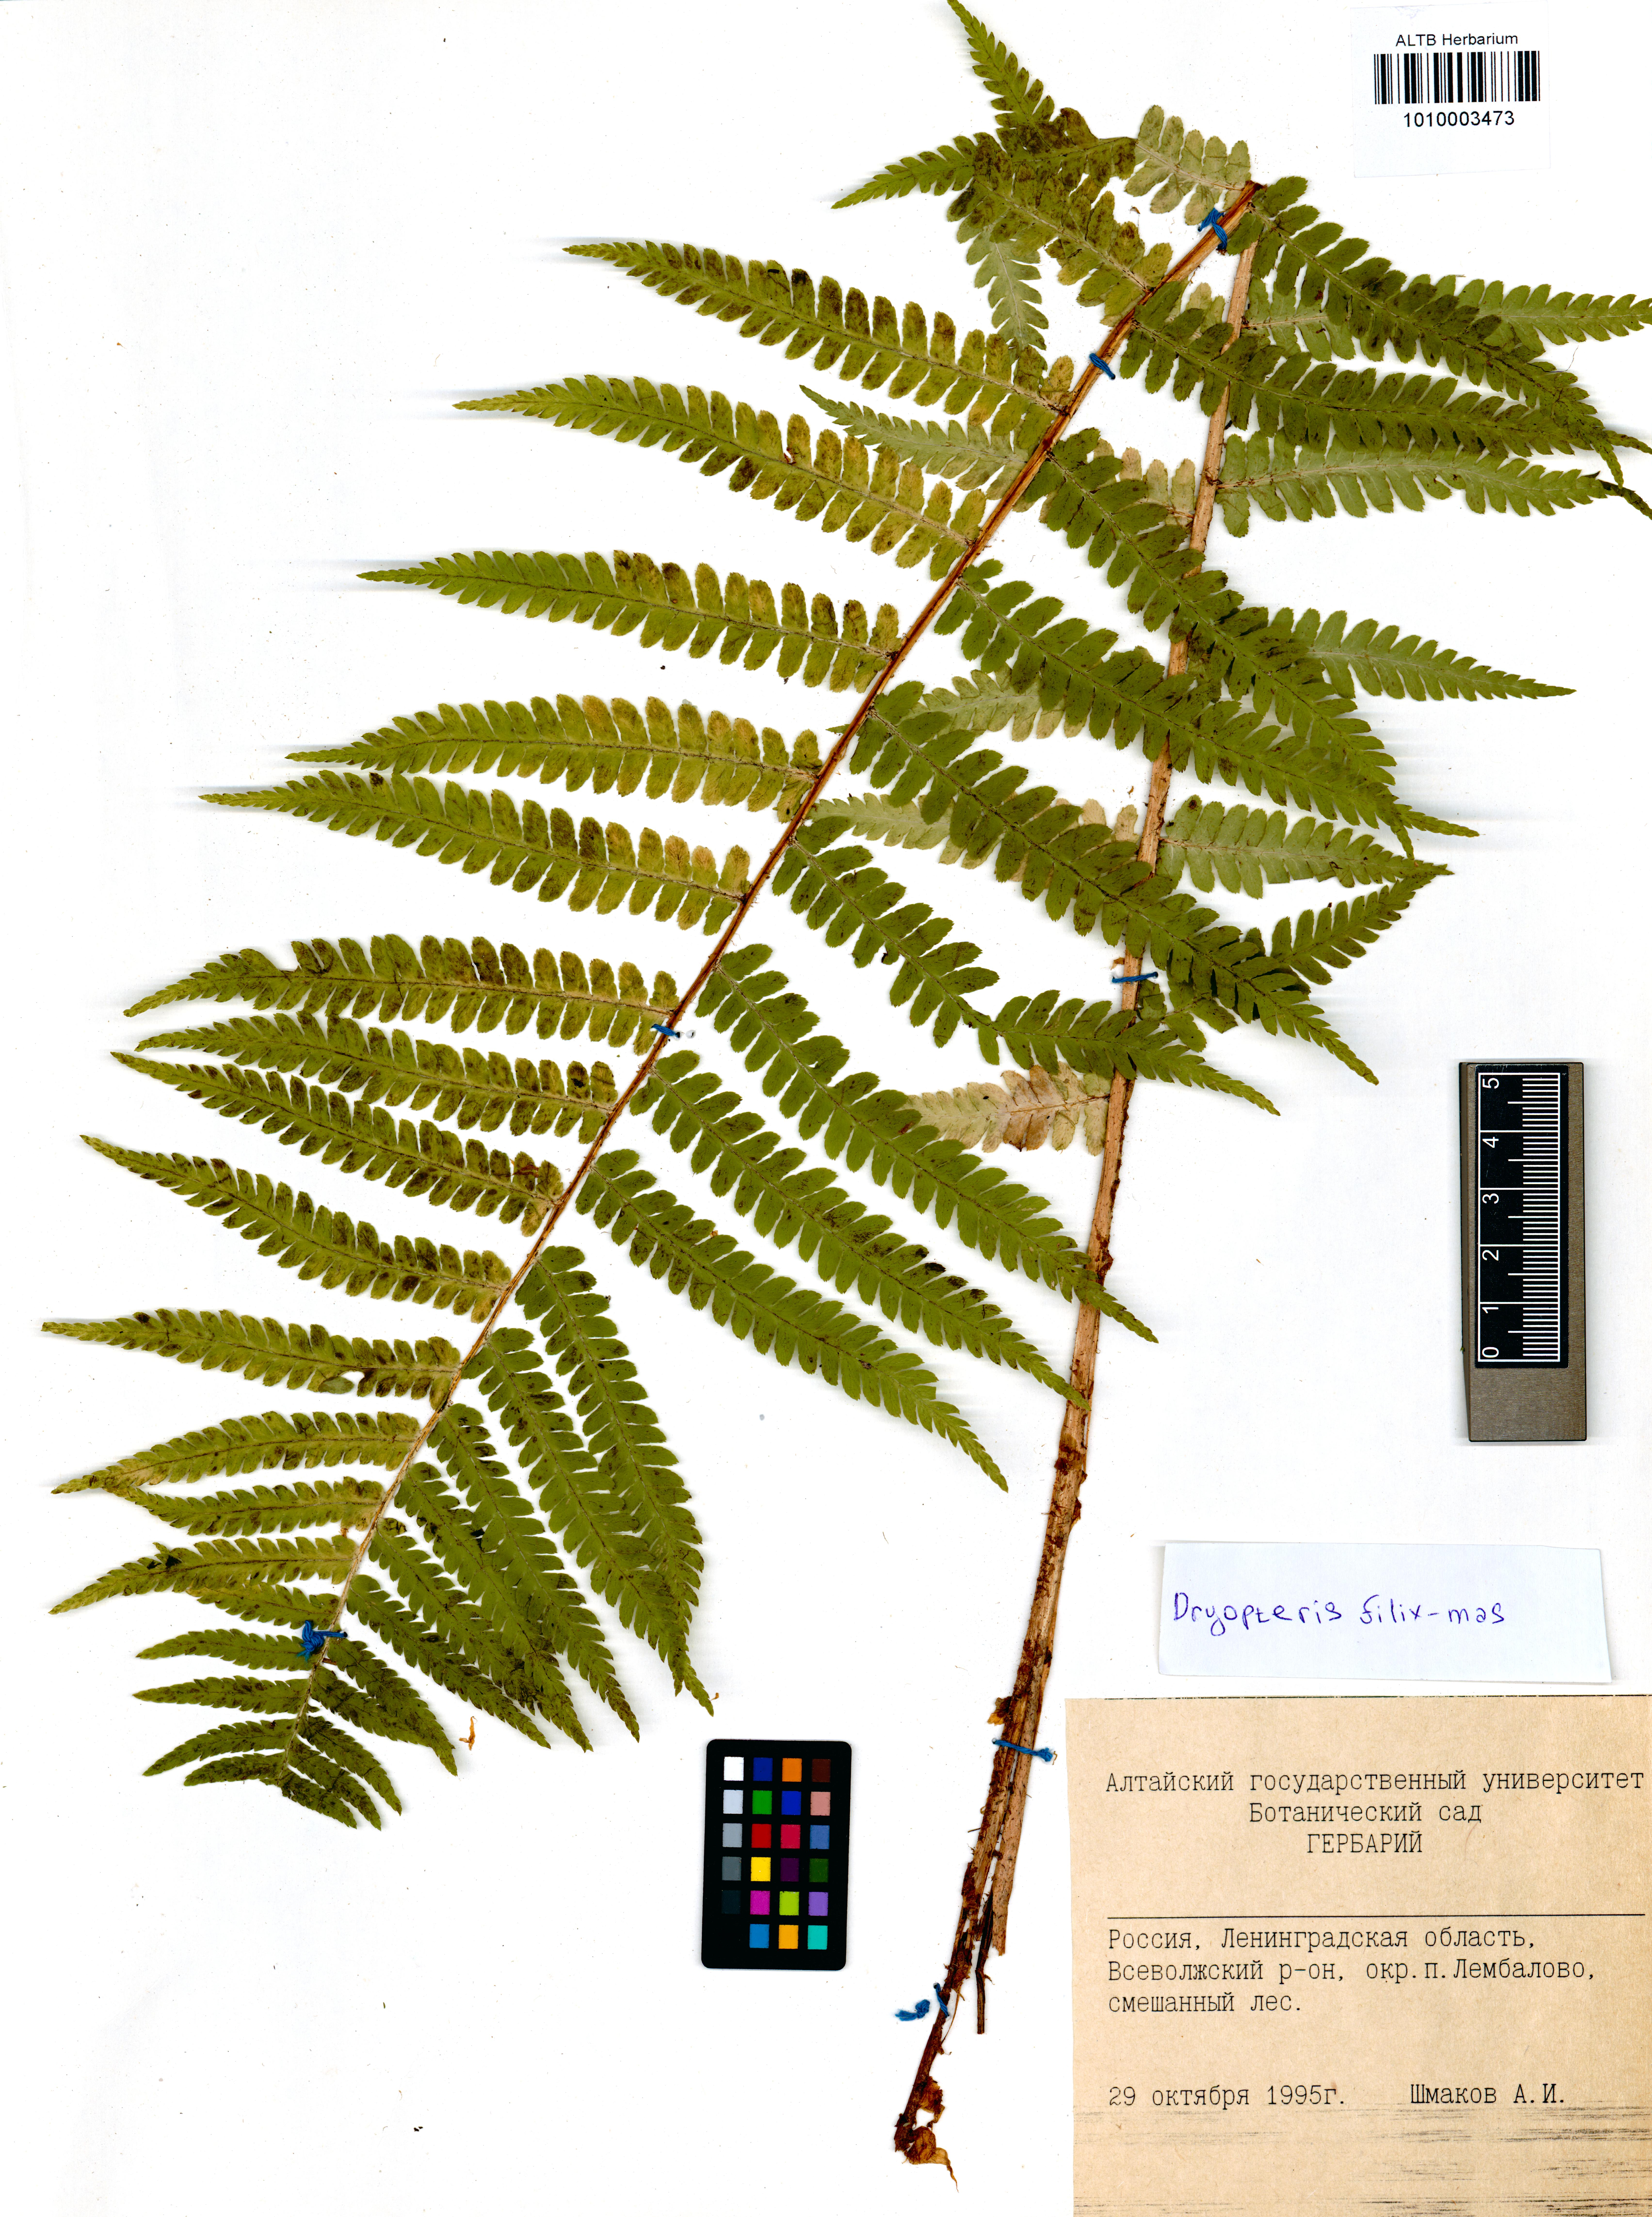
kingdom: Plantae
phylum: Tracheophyta
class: Polypodiopsida
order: Polypodiales
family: Dryopteridaceae
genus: Dryopteris
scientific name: Dryopteris filix-mas
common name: Male fern
